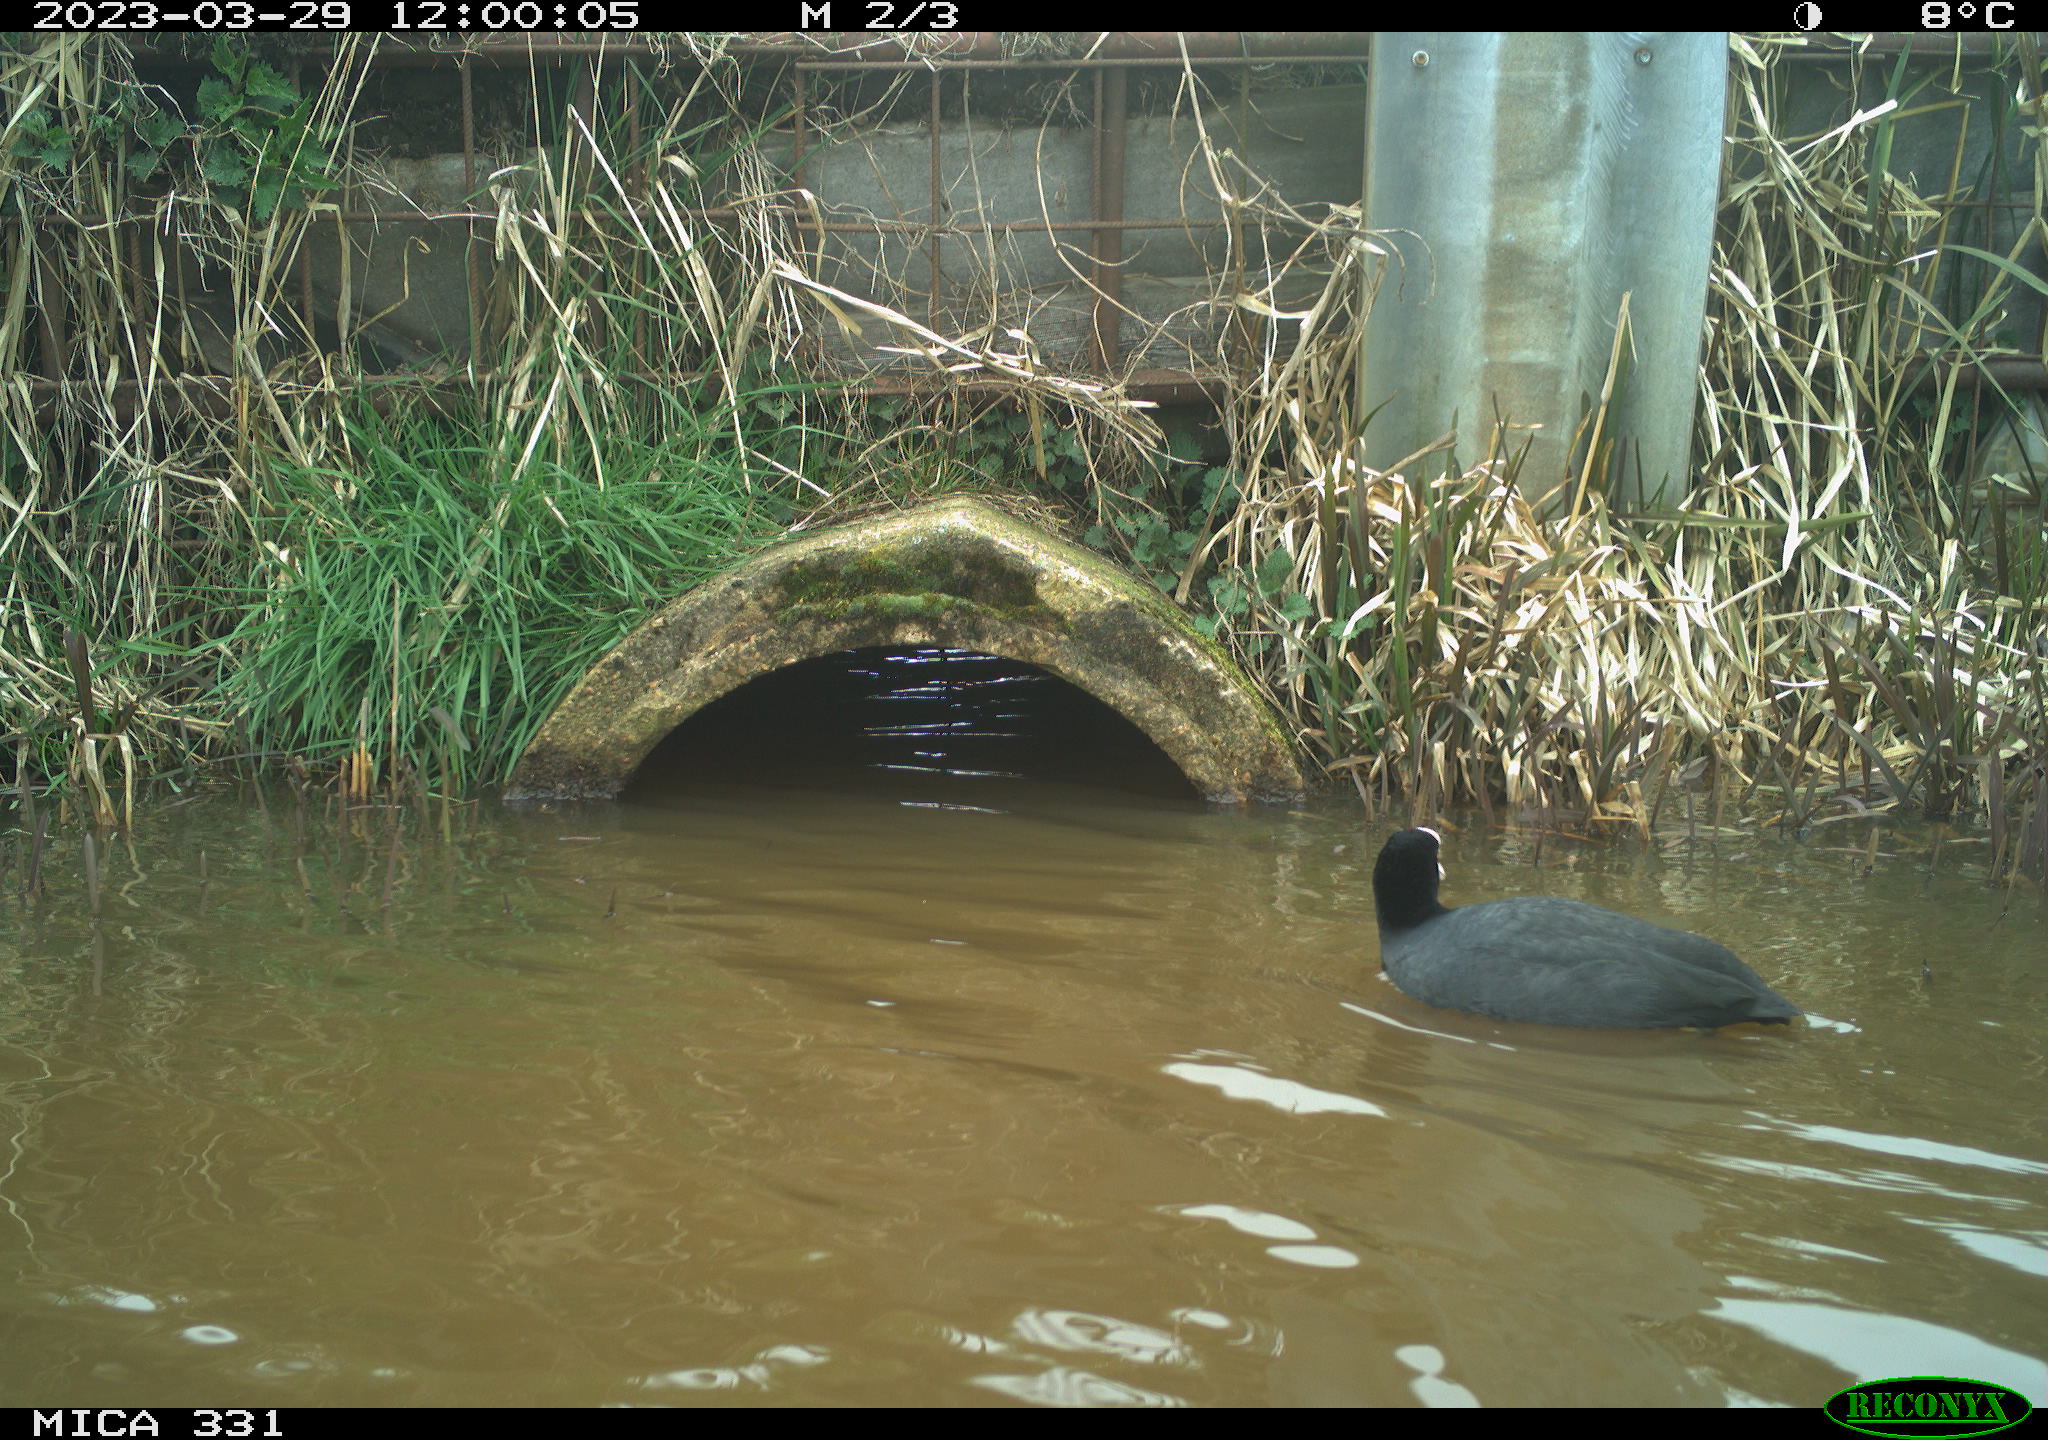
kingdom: Animalia
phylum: Chordata
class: Aves
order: Gruiformes
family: Rallidae
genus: Fulica
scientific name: Fulica atra
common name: Eurasian coot
